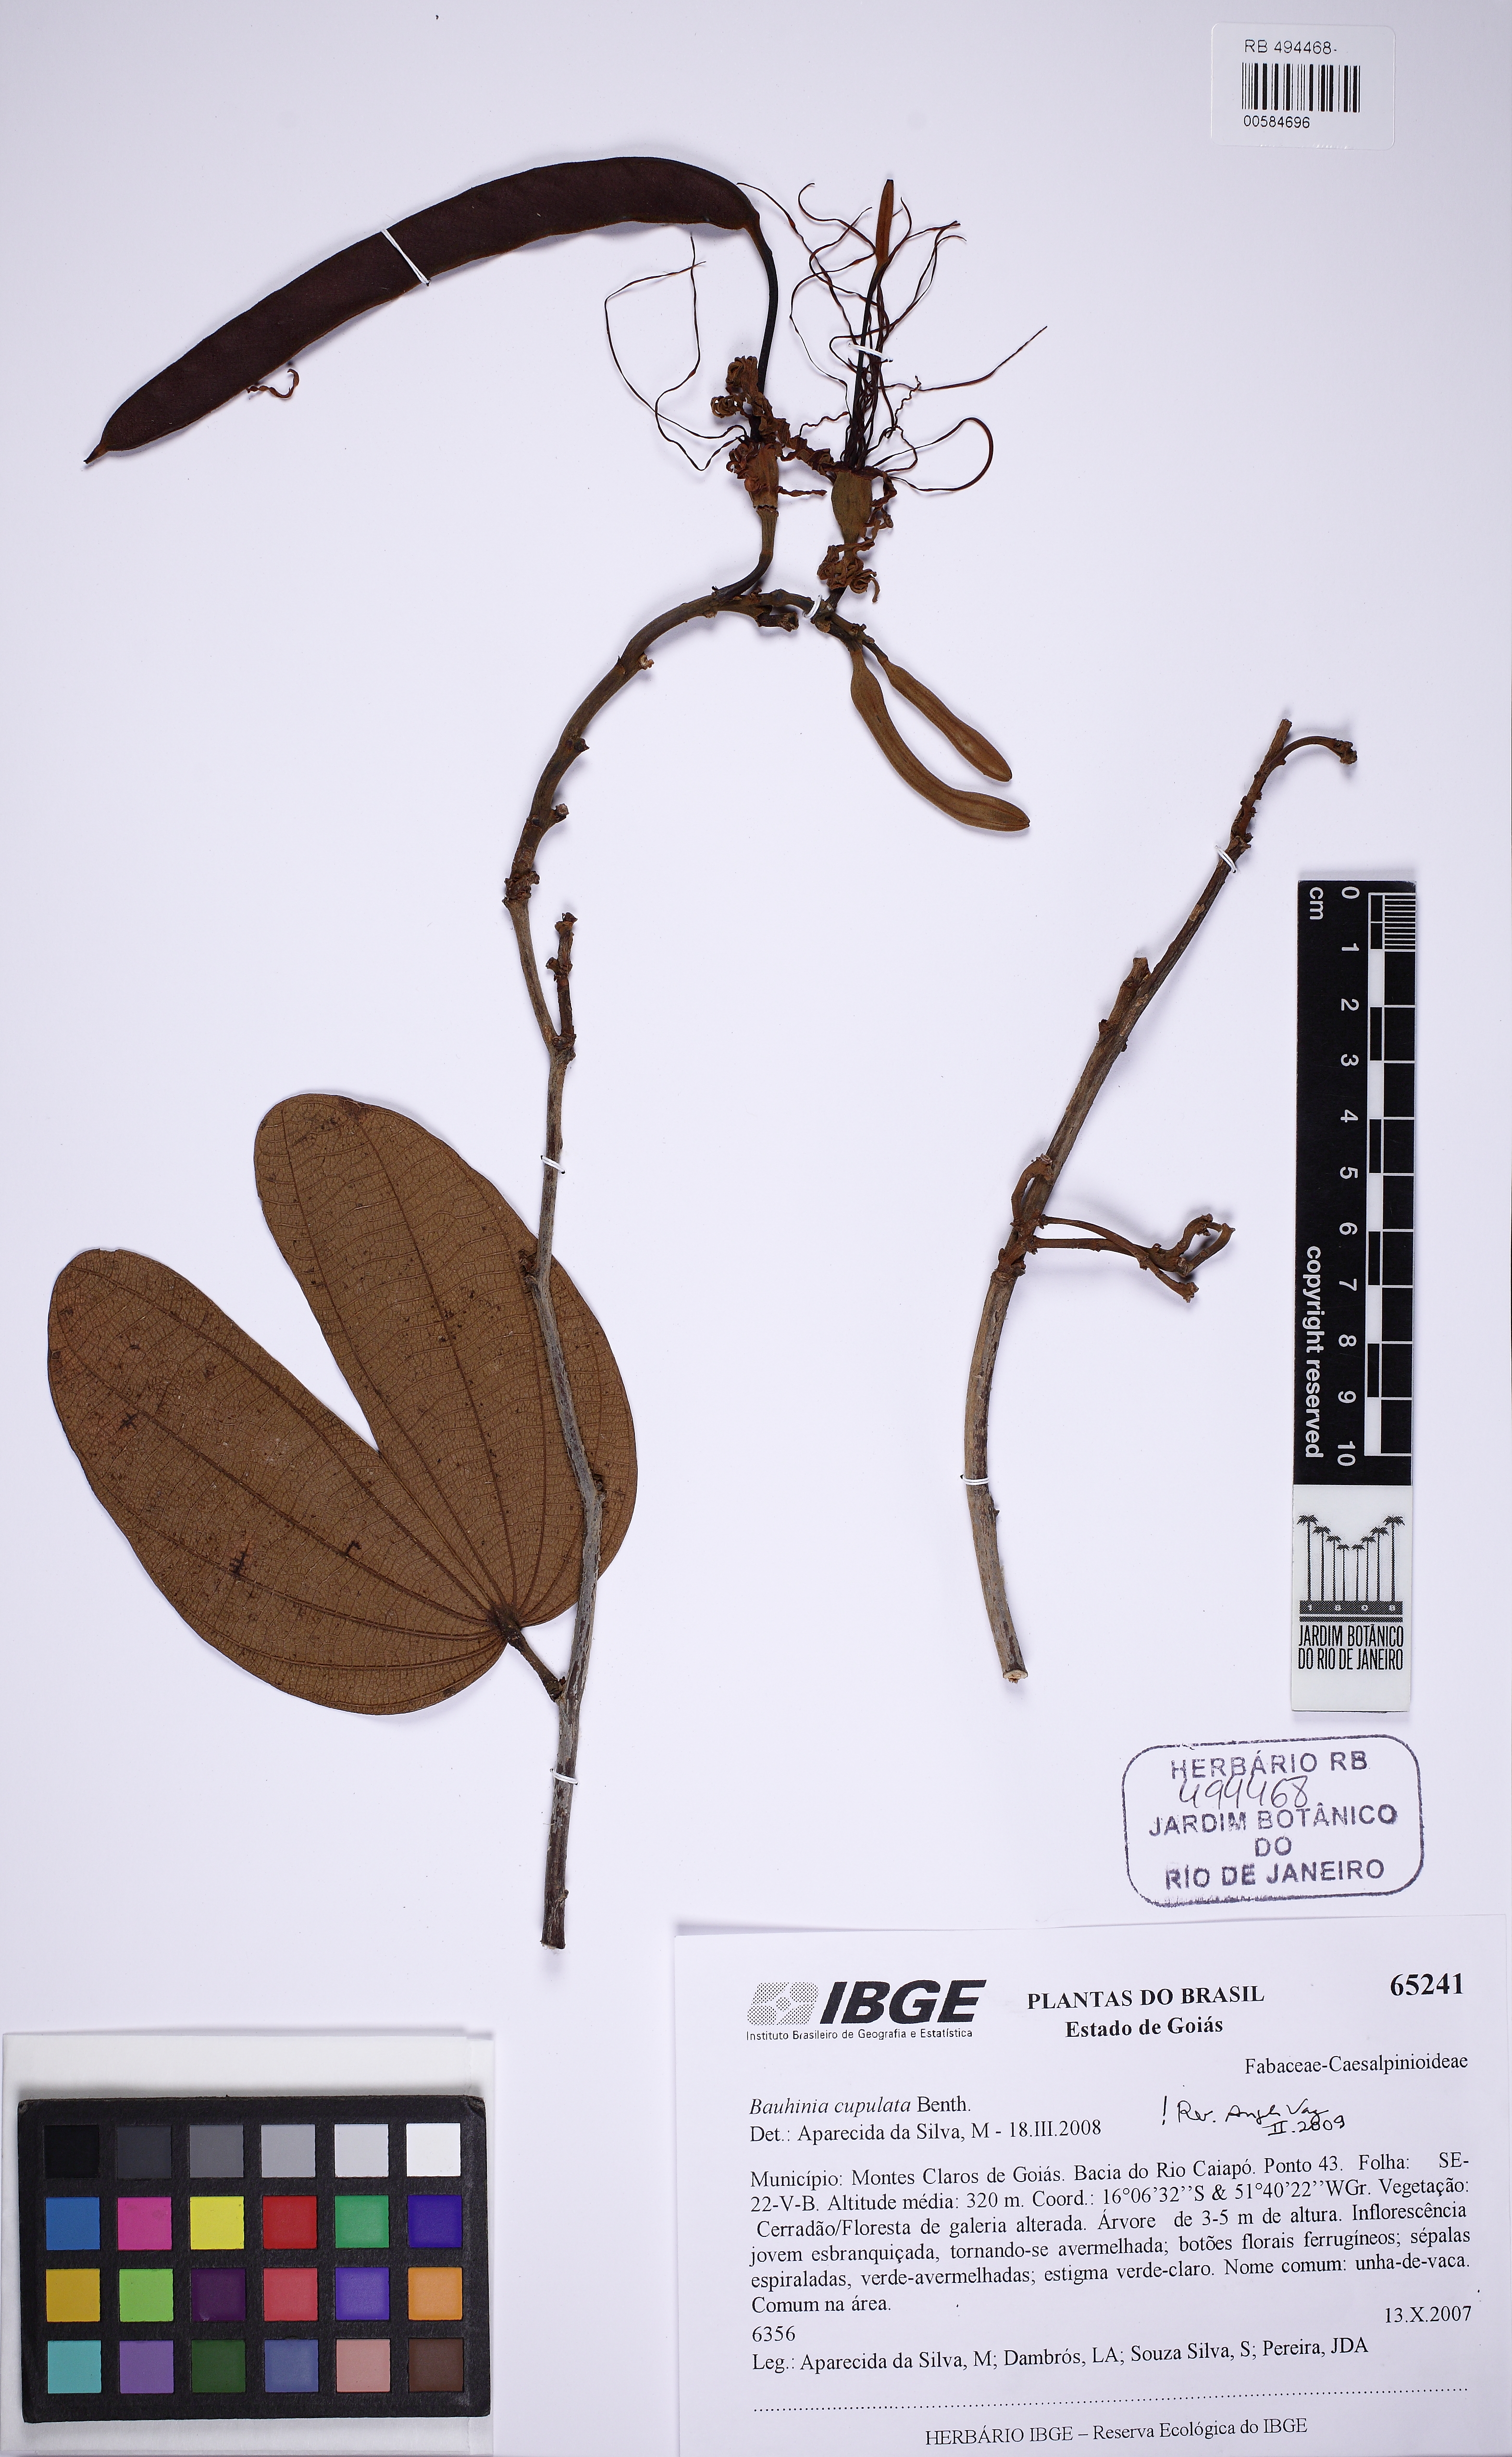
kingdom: Plantae
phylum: Tracheophyta
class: Magnoliopsida
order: Fabales
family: Fabaceae
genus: Bauhinia
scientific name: Bauhinia cupulata
